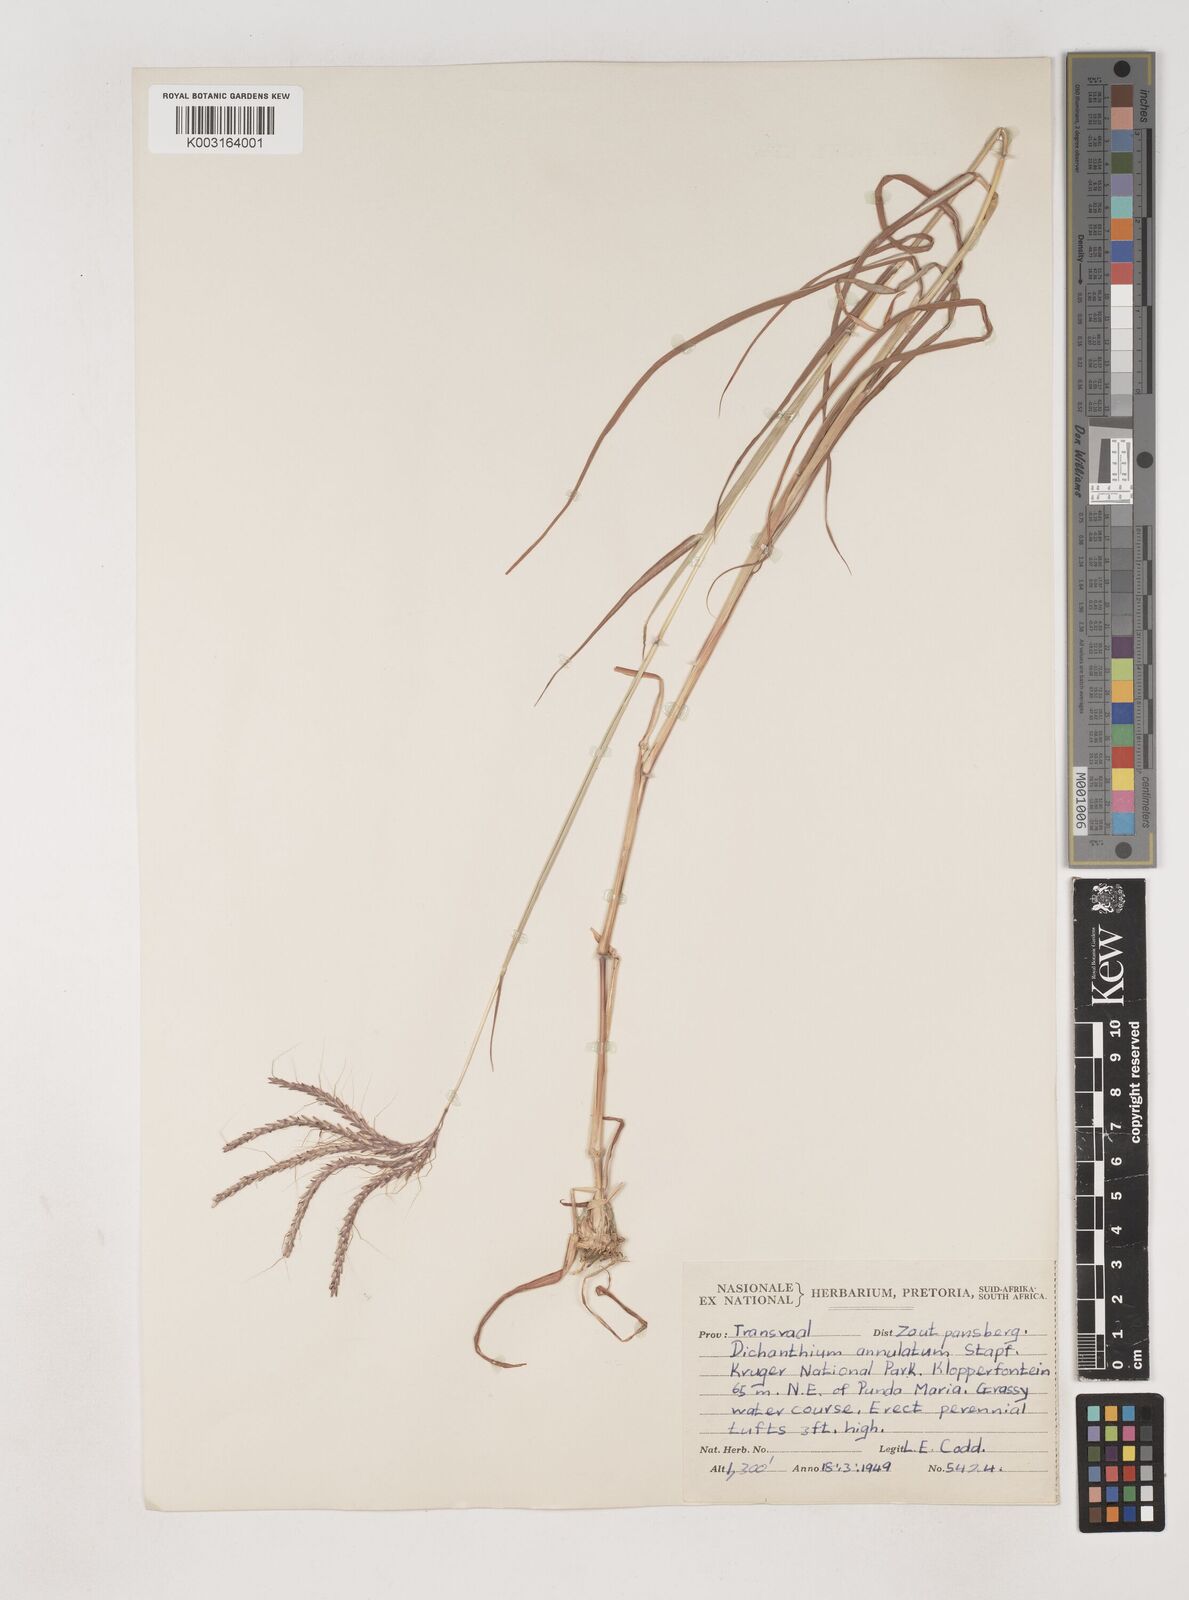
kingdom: Plantae
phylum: Tracheophyta
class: Liliopsida
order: Poales
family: Poaceae
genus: Dichanthium
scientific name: Dichanthium annulatum
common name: Kleberg's bluestem
